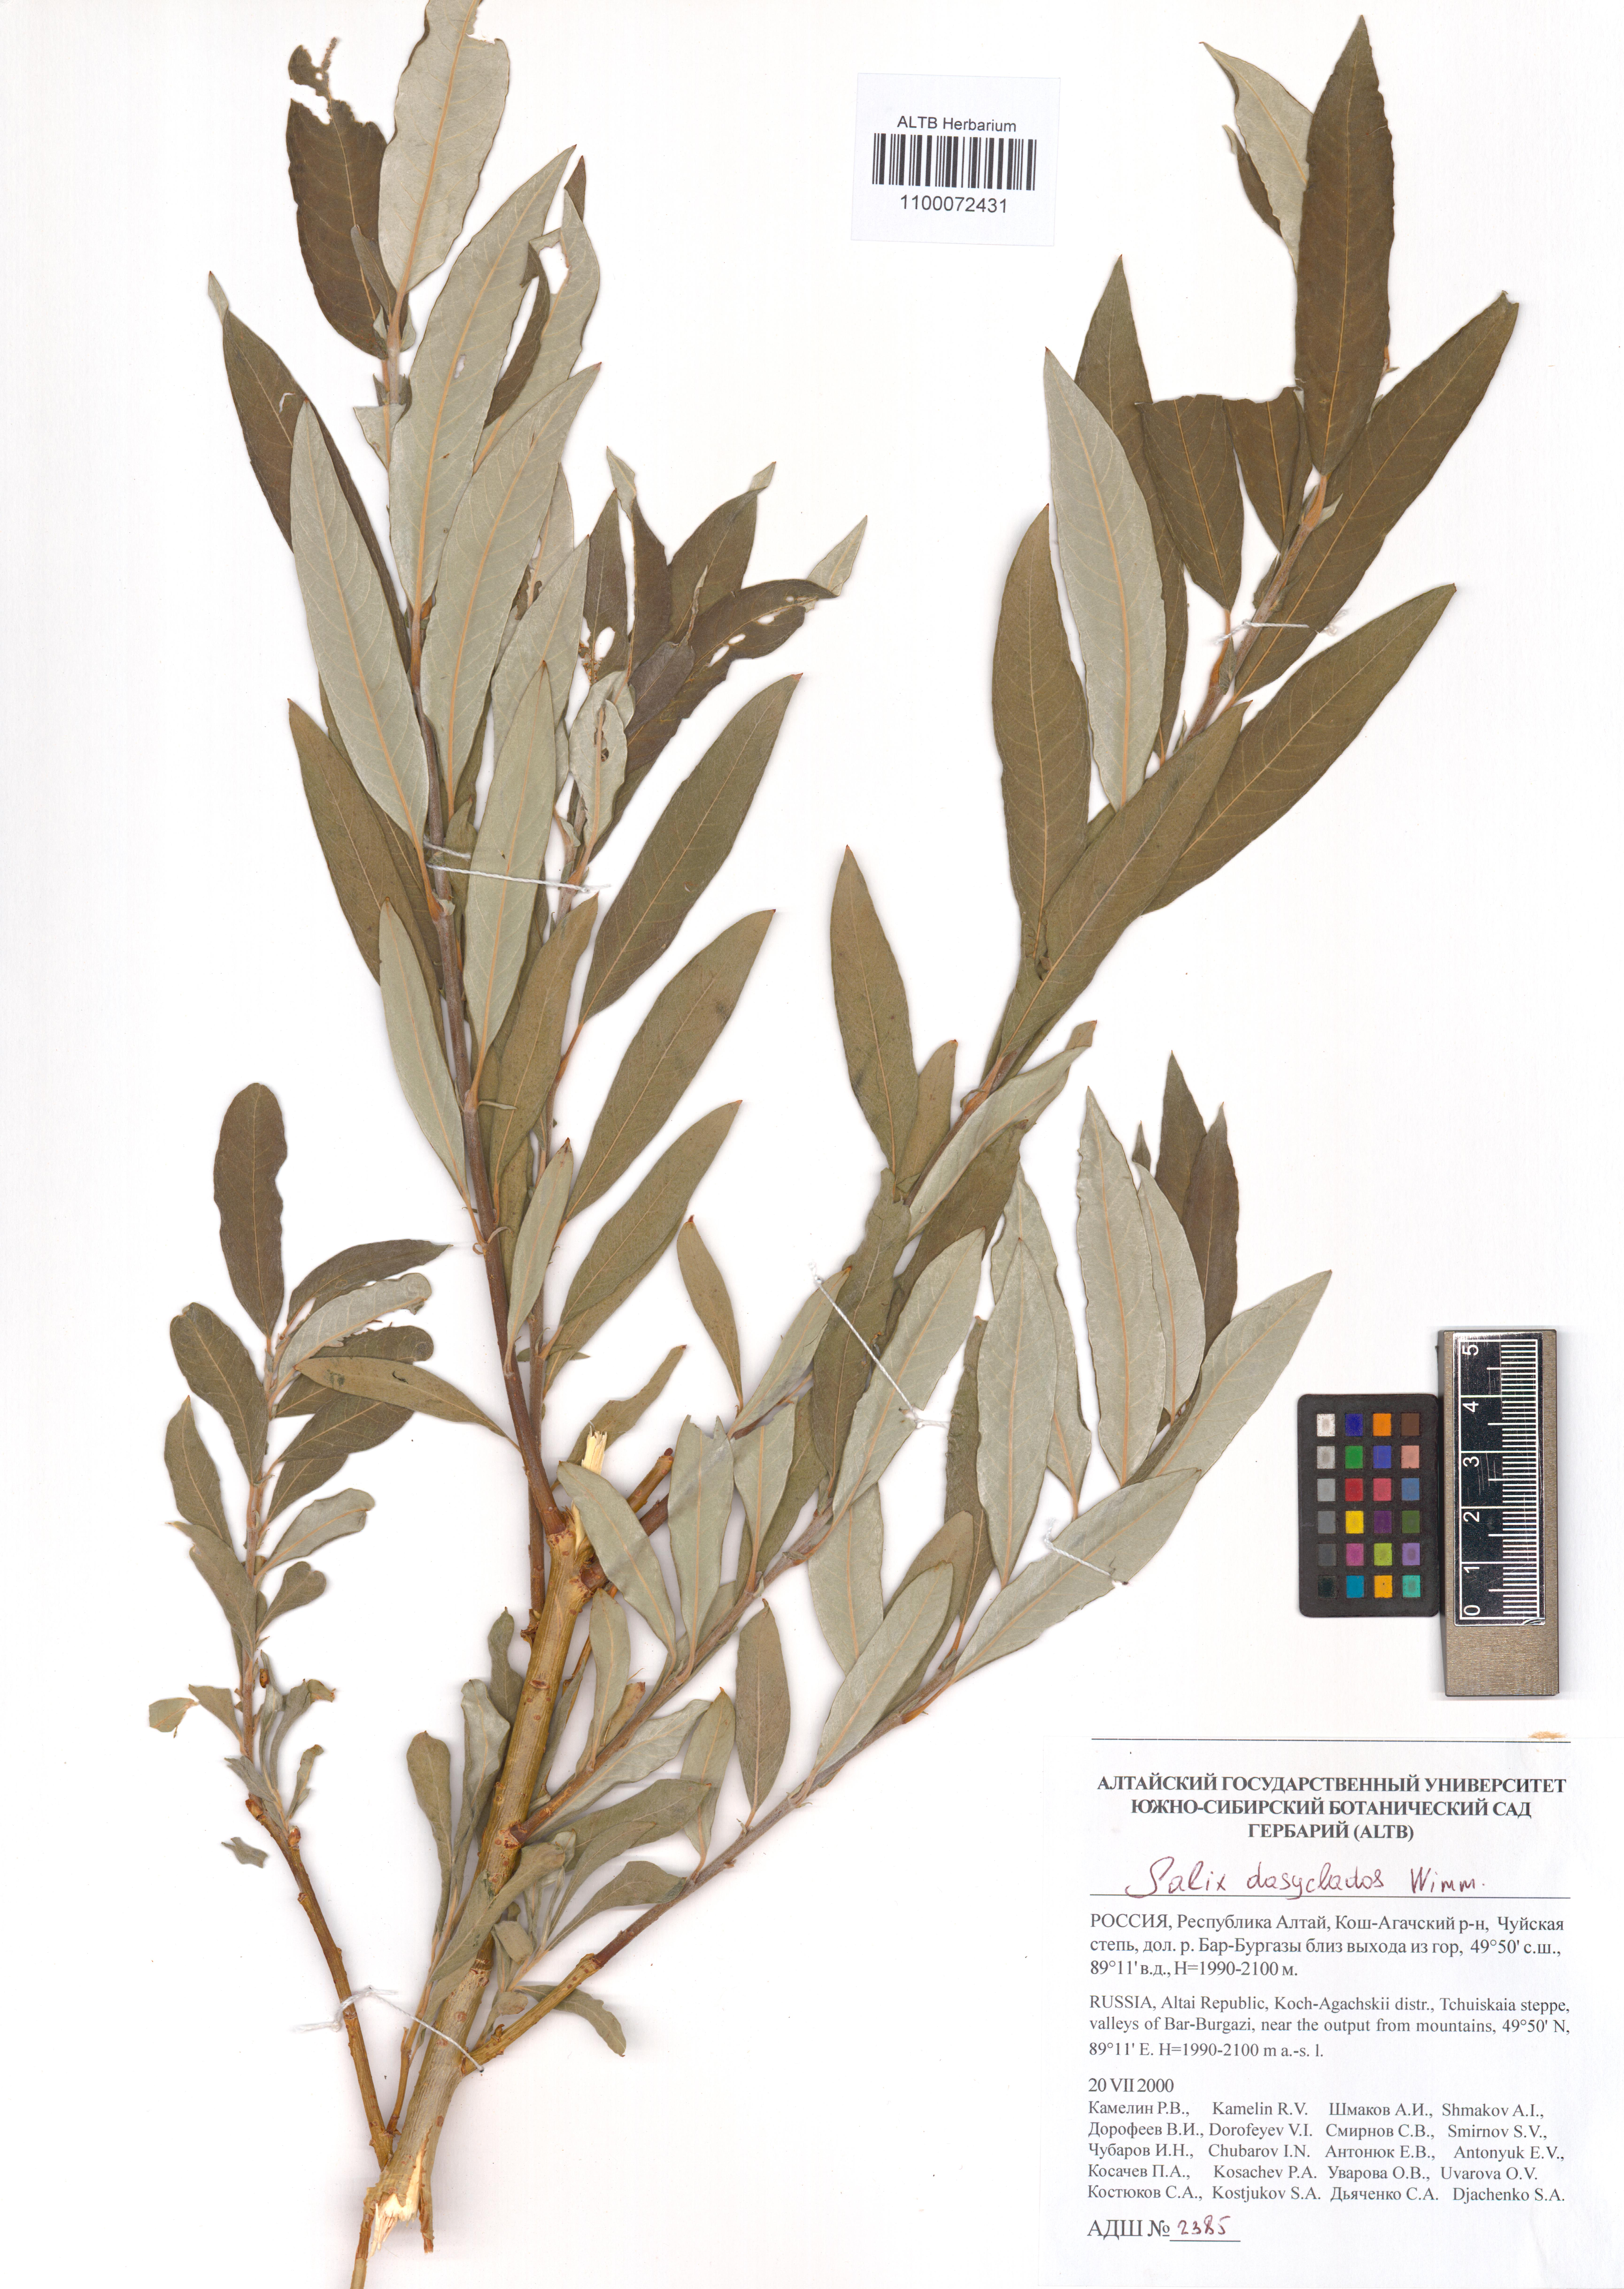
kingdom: Plantae
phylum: Tracheophyta
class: Magnoliopsida
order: Malpighiales
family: Salicaceae
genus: Salix
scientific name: Salix gmelinii
